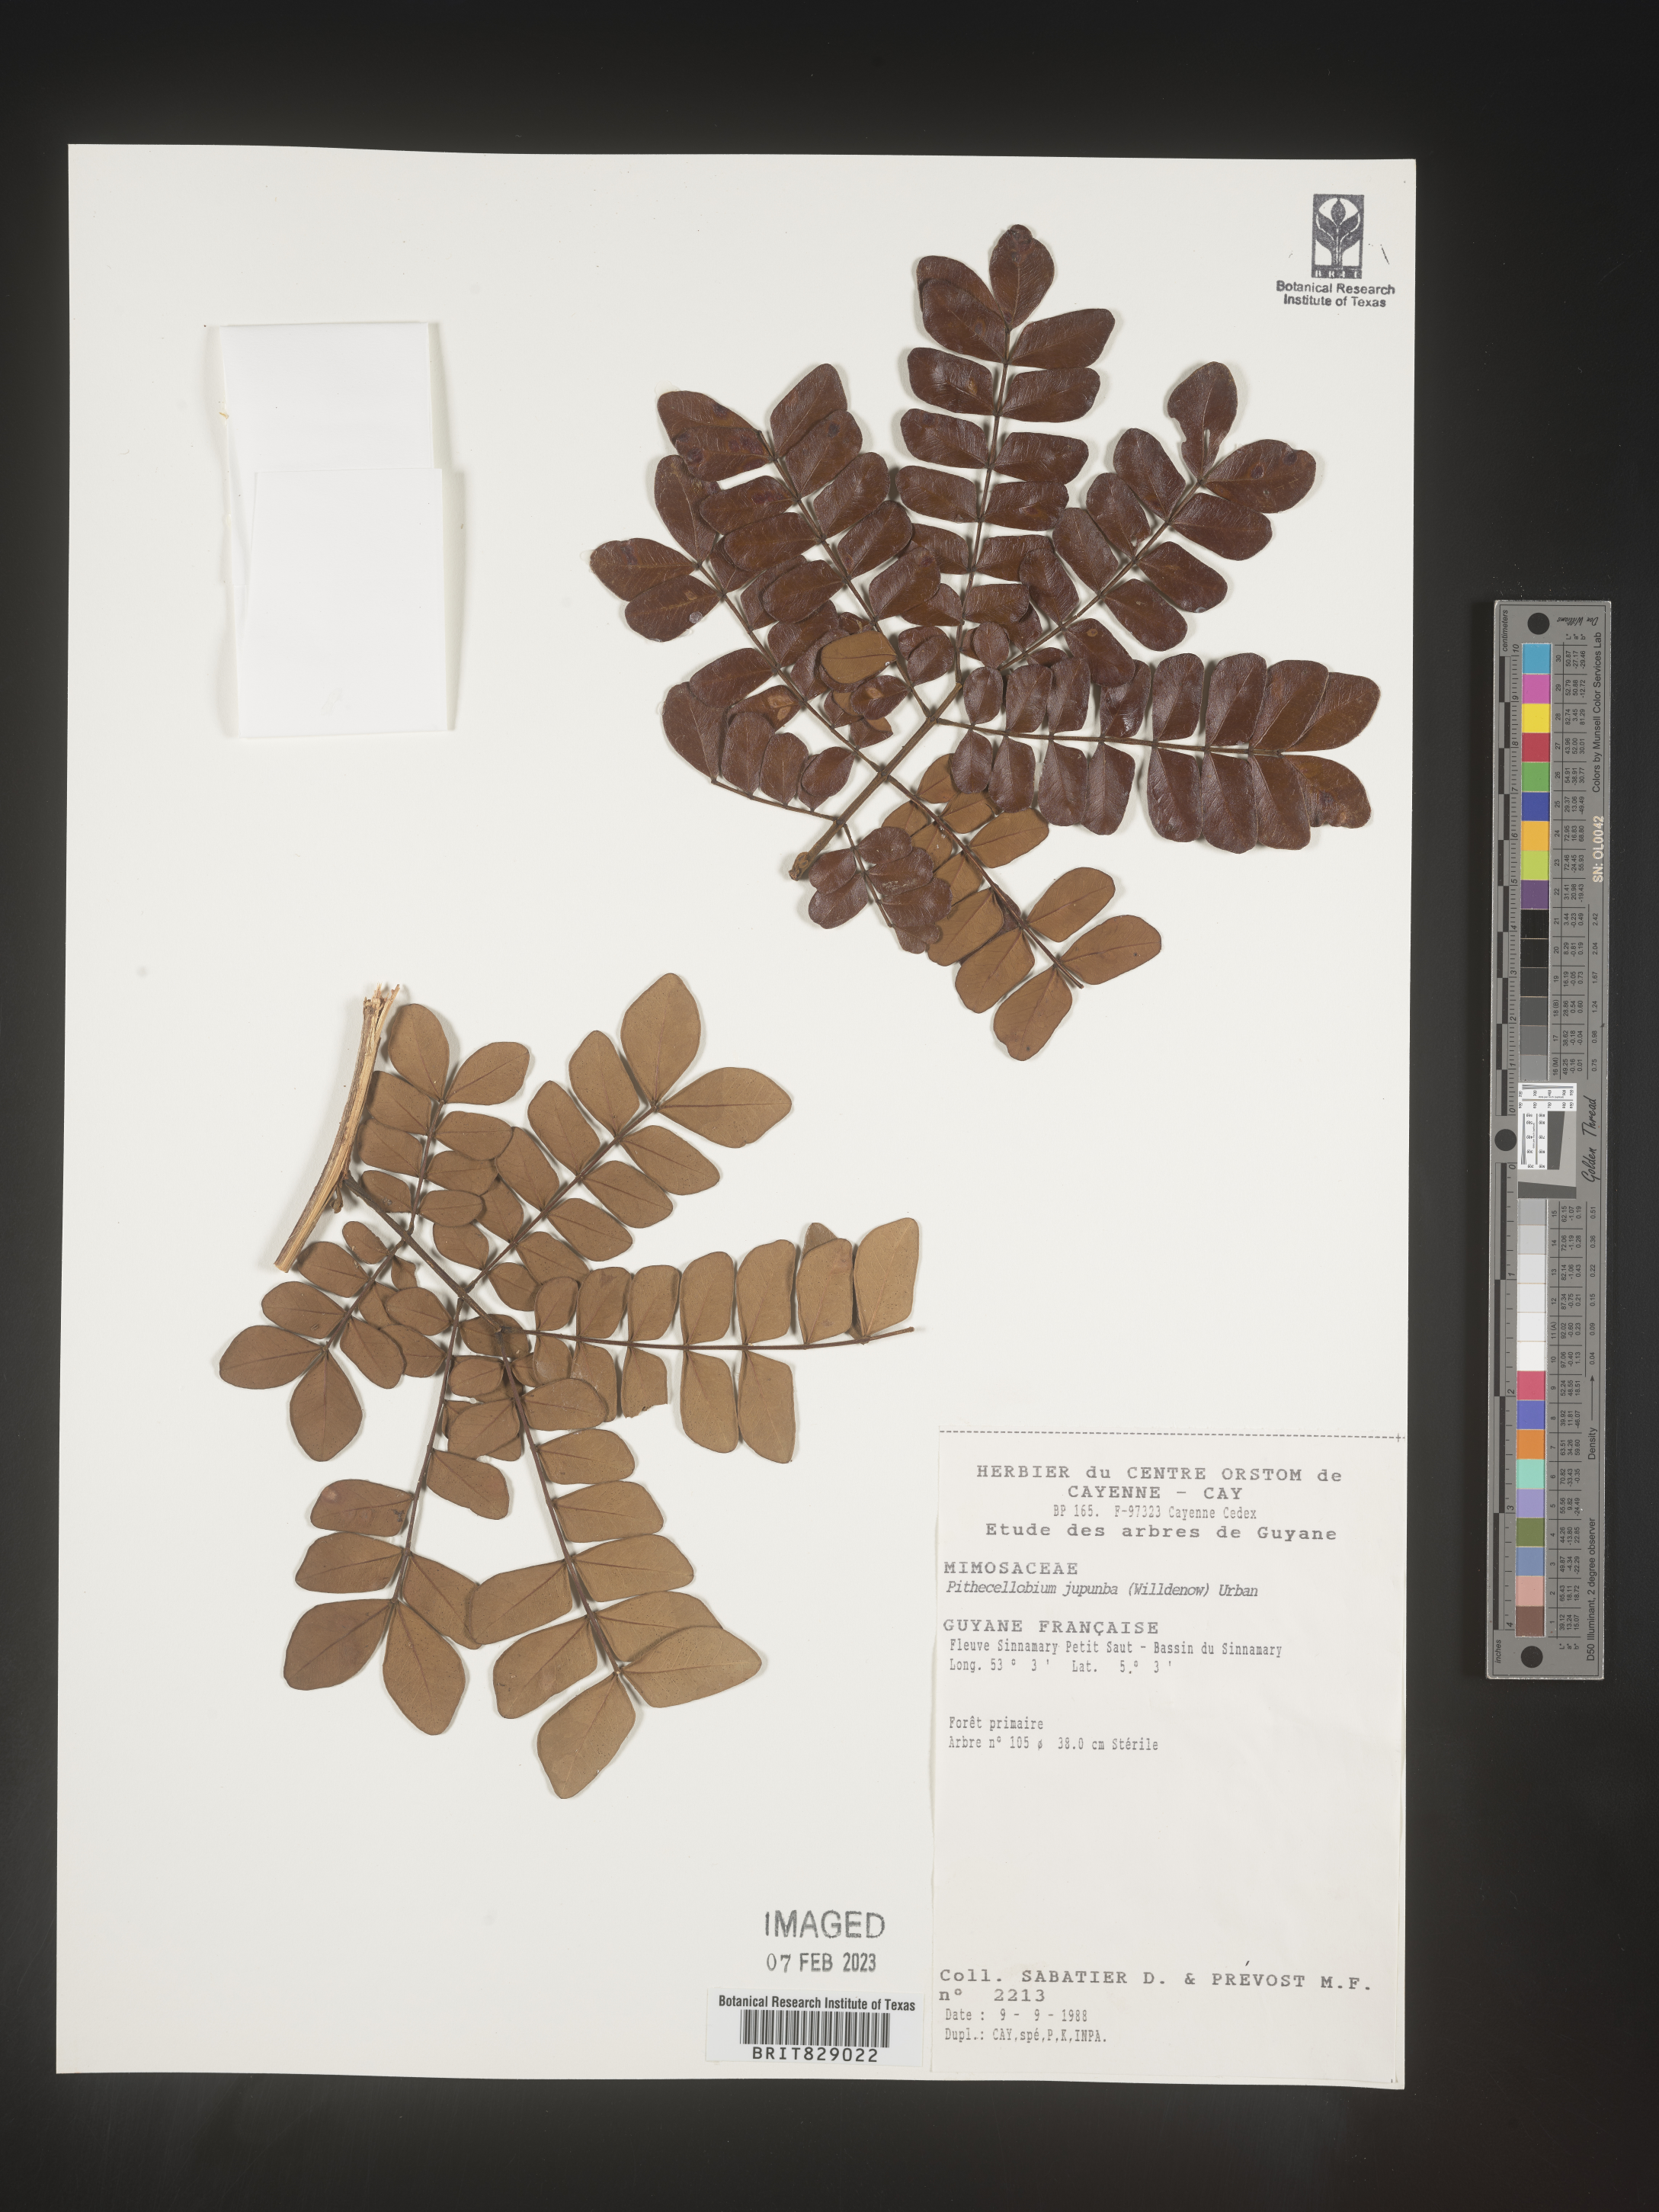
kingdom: Plantae
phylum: Tracheophyta
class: Magnoliopsida
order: Fabales
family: Fabaceae
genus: Pithecellobium
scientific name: Pithecellobium
